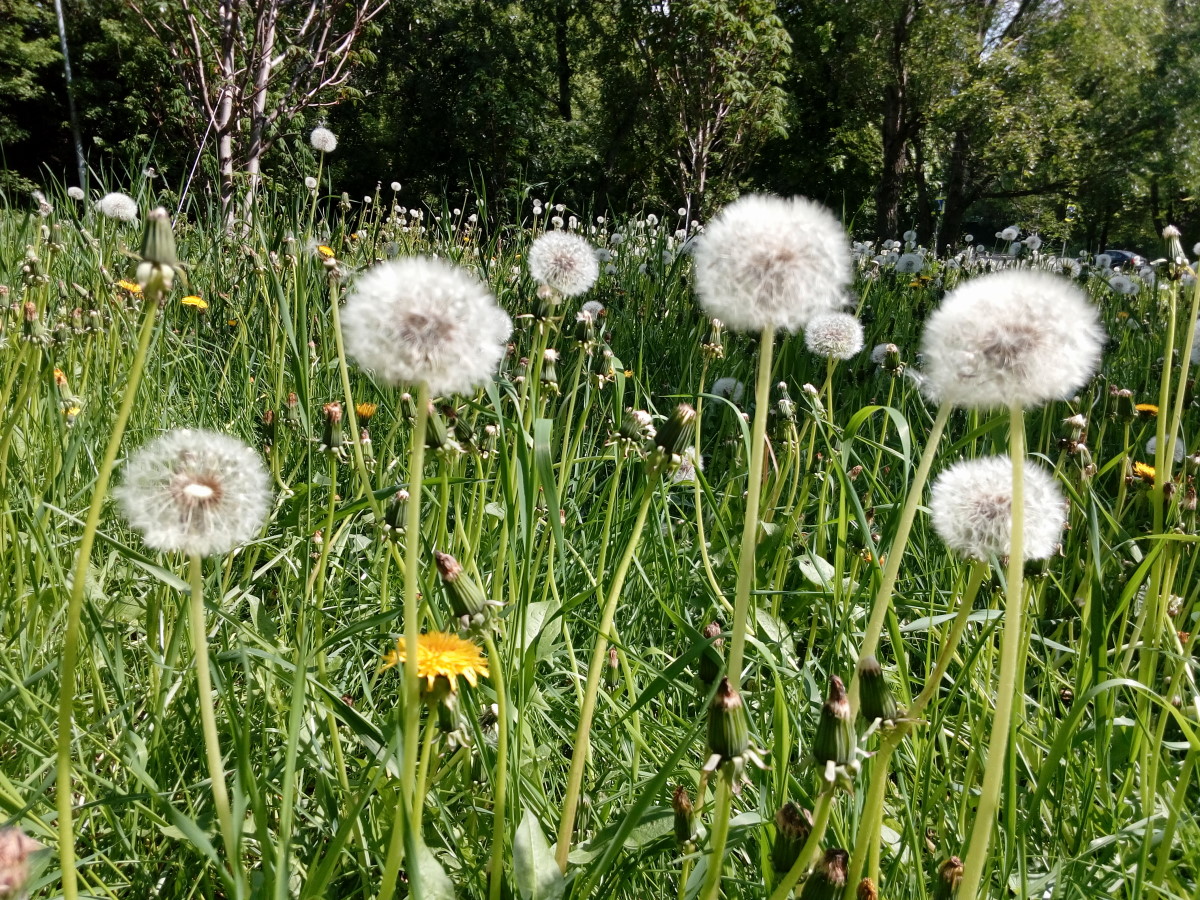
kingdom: Plantae
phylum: Tracheophyta
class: Magnoliopsida
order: Asterales
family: Asteraceae
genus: Taraxacum
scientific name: Taraxacum officinale
